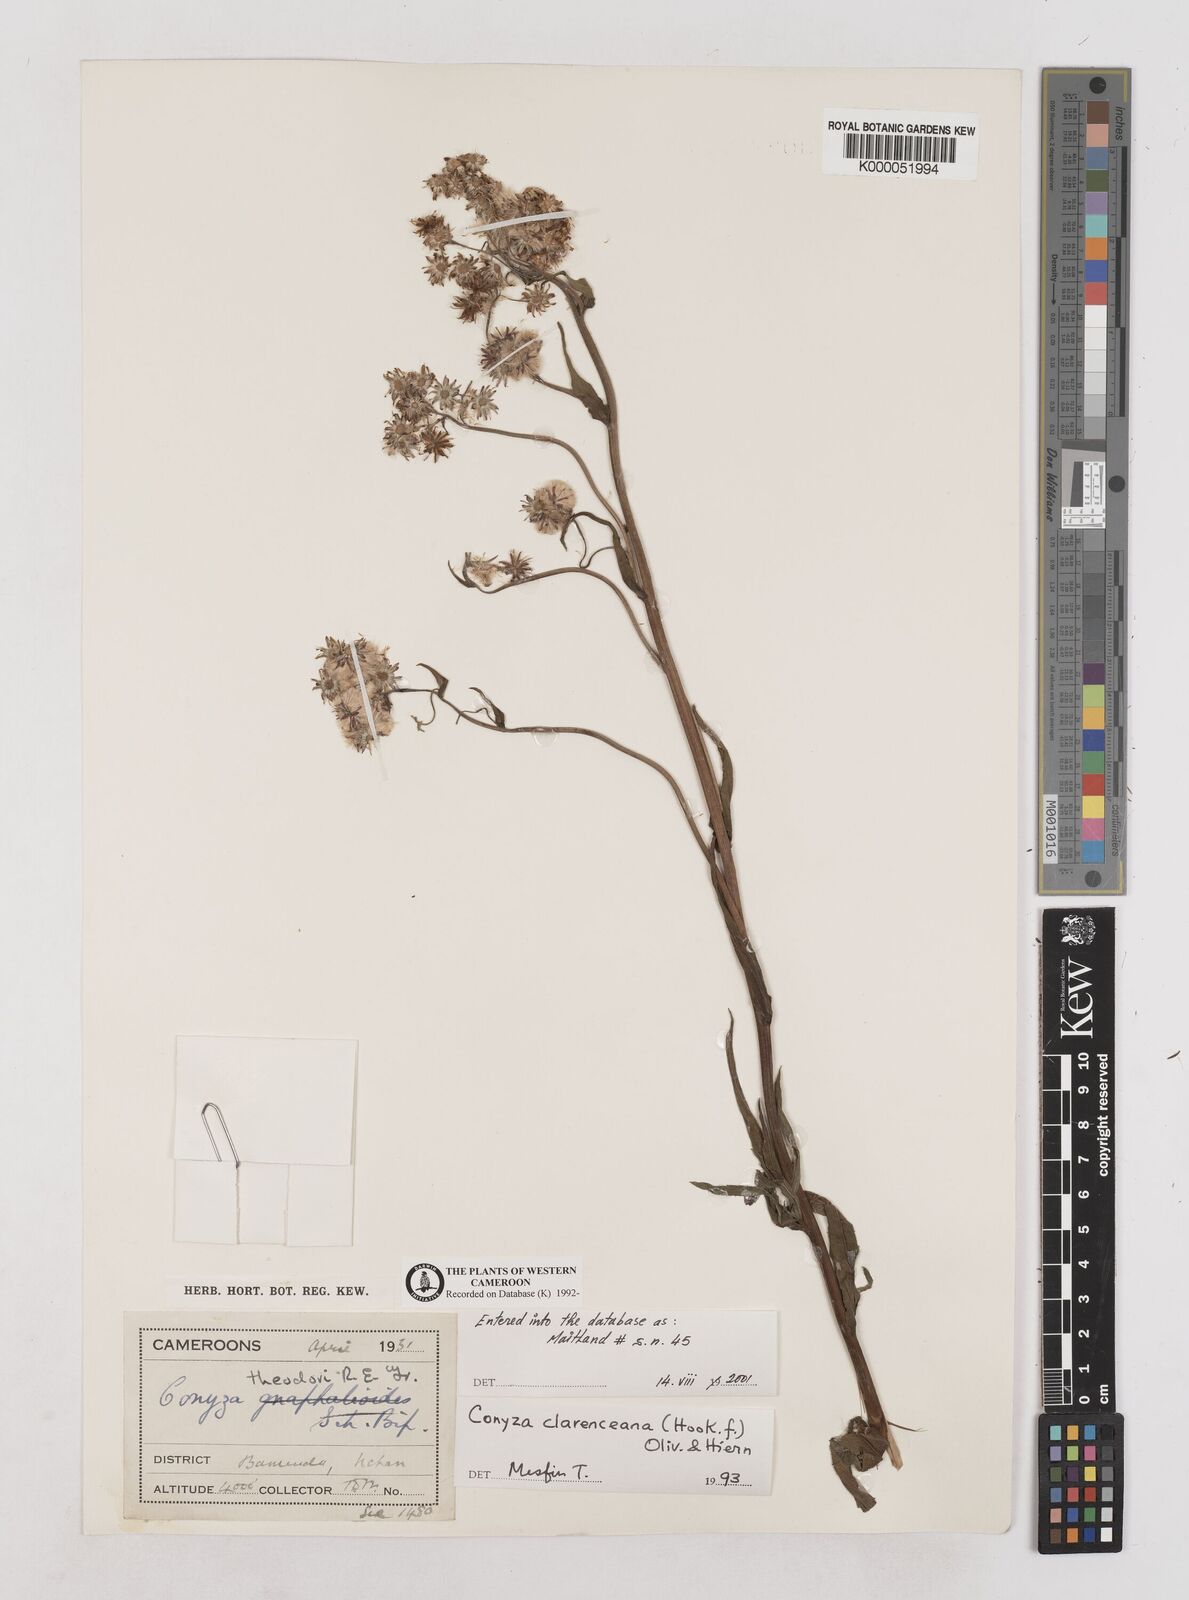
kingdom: Plantae
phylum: Tracheophyta
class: Magnoliopsida
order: Asterales
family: Asteraceae
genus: Conyza
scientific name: Conyza baumii
